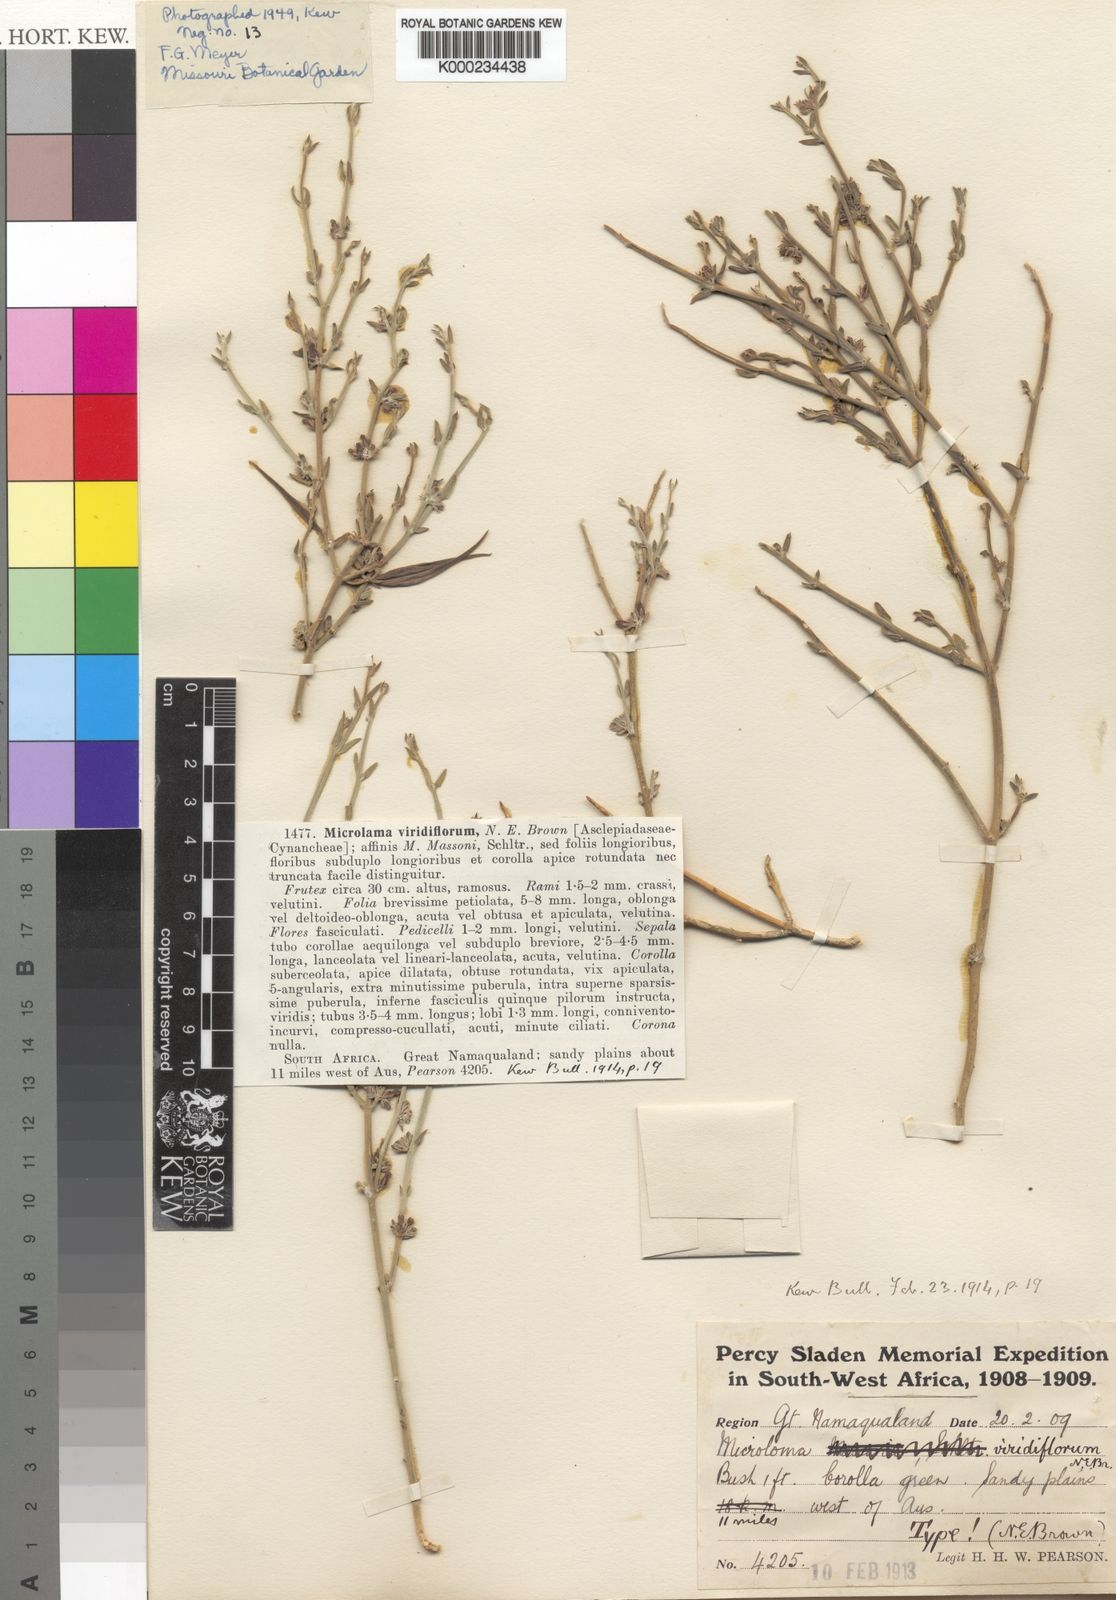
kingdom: Plantae
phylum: Tracheophyta
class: Magnoliopsida
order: Gentianales
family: Apocynaceae
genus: Microloma
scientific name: Microloma armatum
